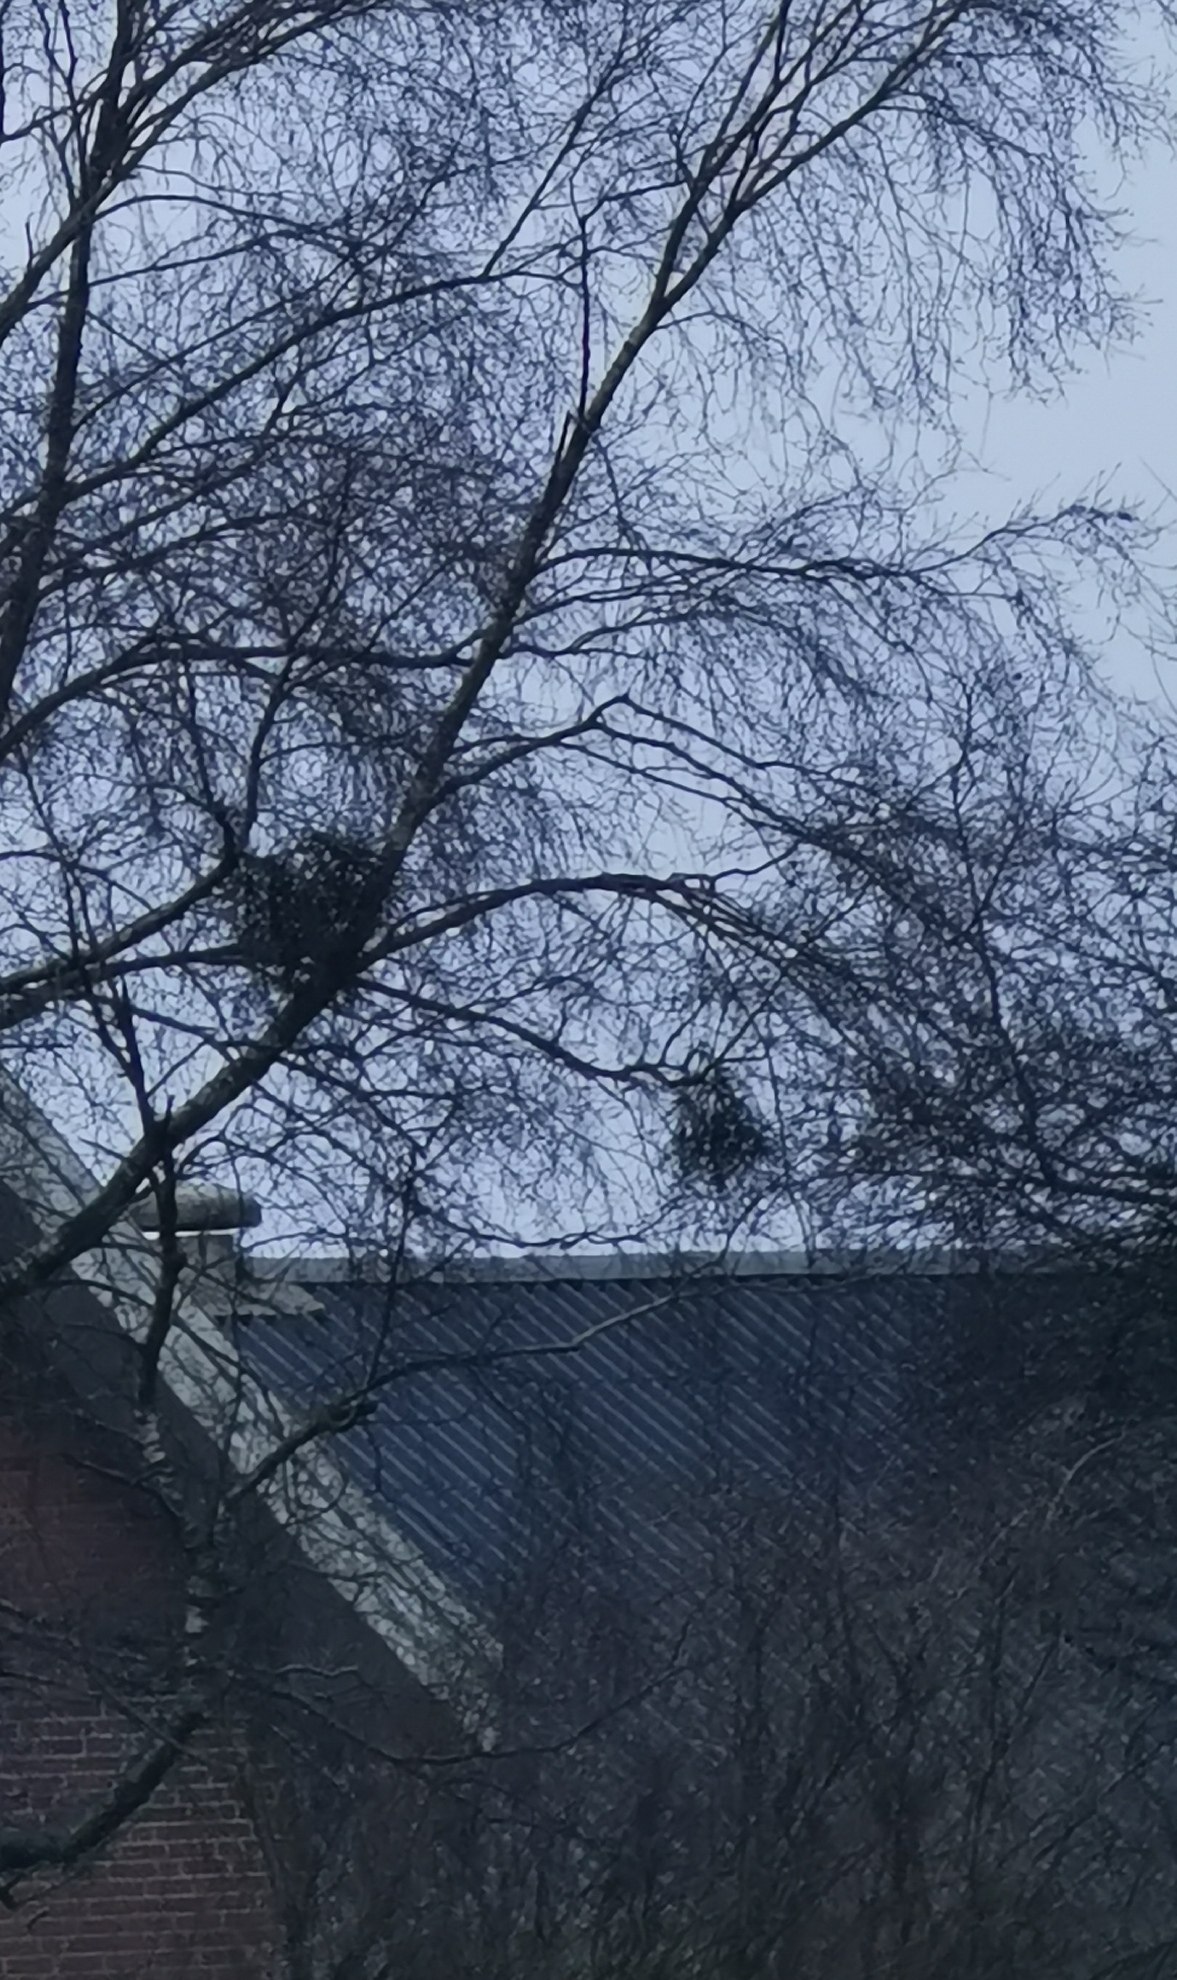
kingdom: Fungi
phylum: Ascomycota
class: Taphrinomycetes
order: Taphrinales
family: Taphrinaceae
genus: Taphrina
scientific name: Taphrina betulina
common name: hekse-sækdug
